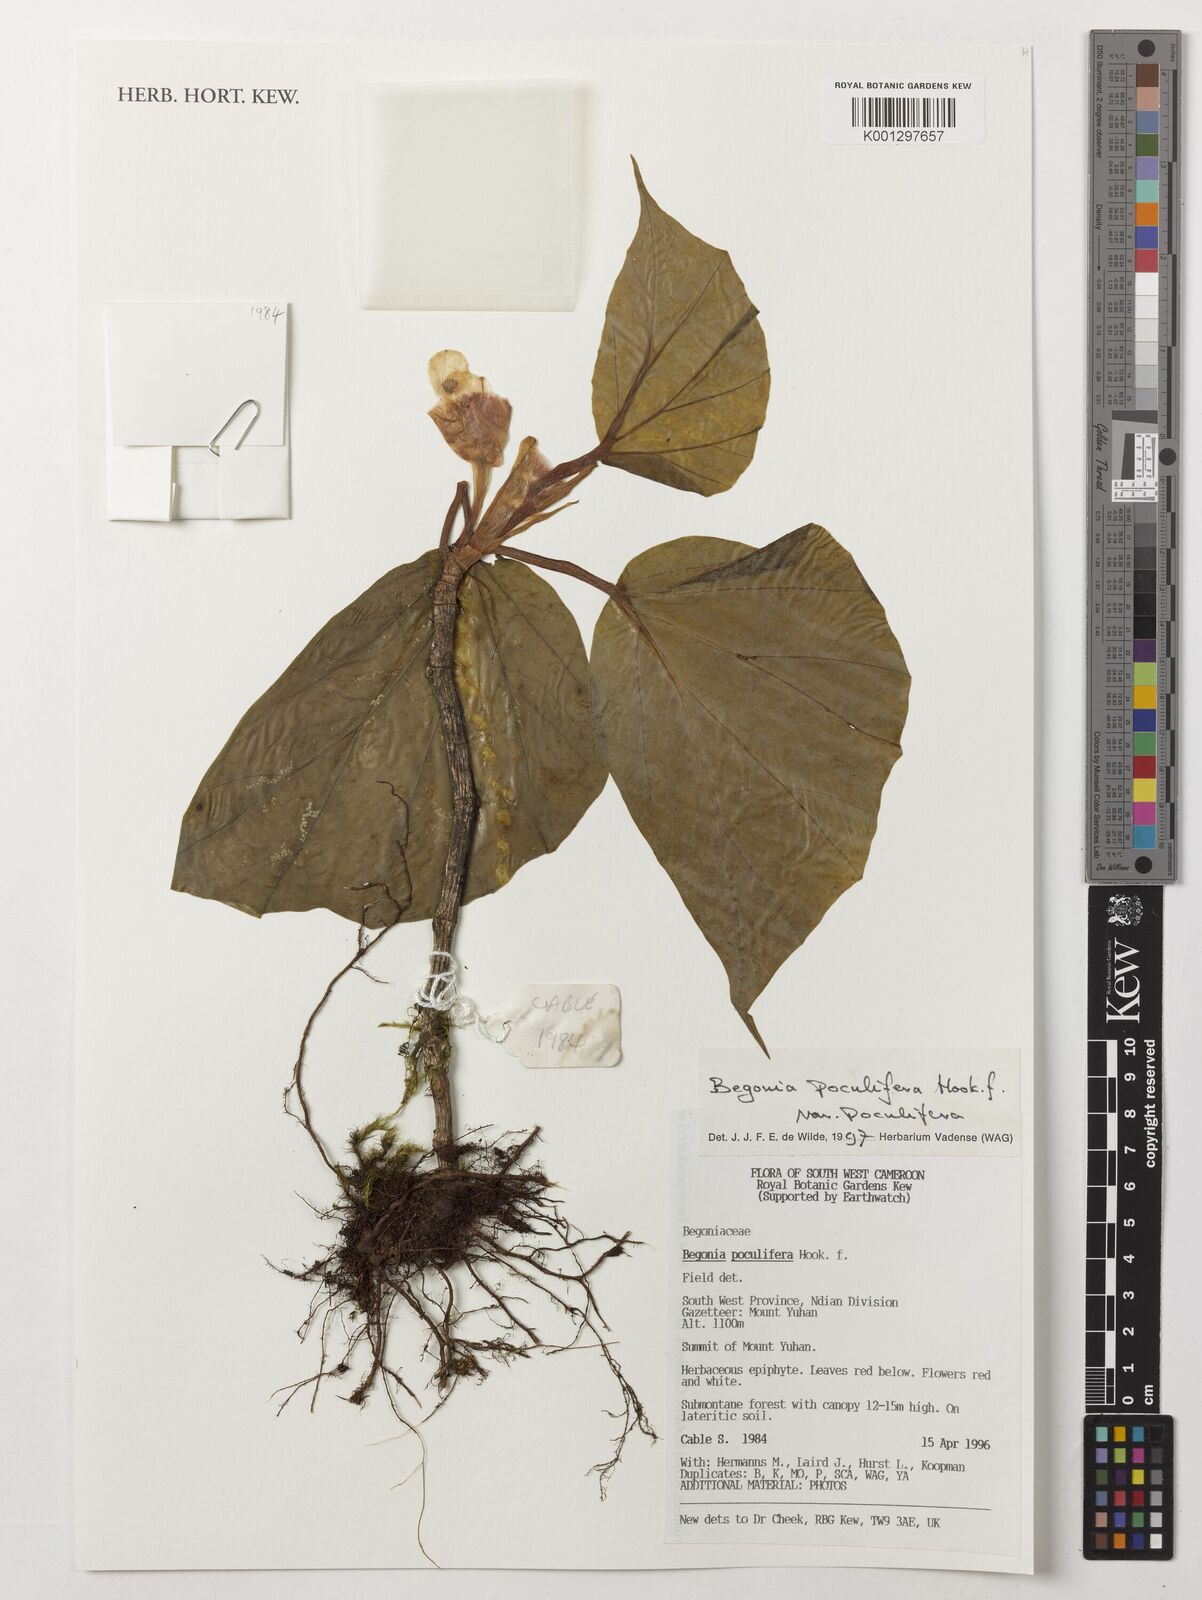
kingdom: Plantae
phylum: Tracheophyta
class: Magnoliopsida
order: Cucurbitales
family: Begoniaceae
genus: Begonia
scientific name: Begonia poculifera
